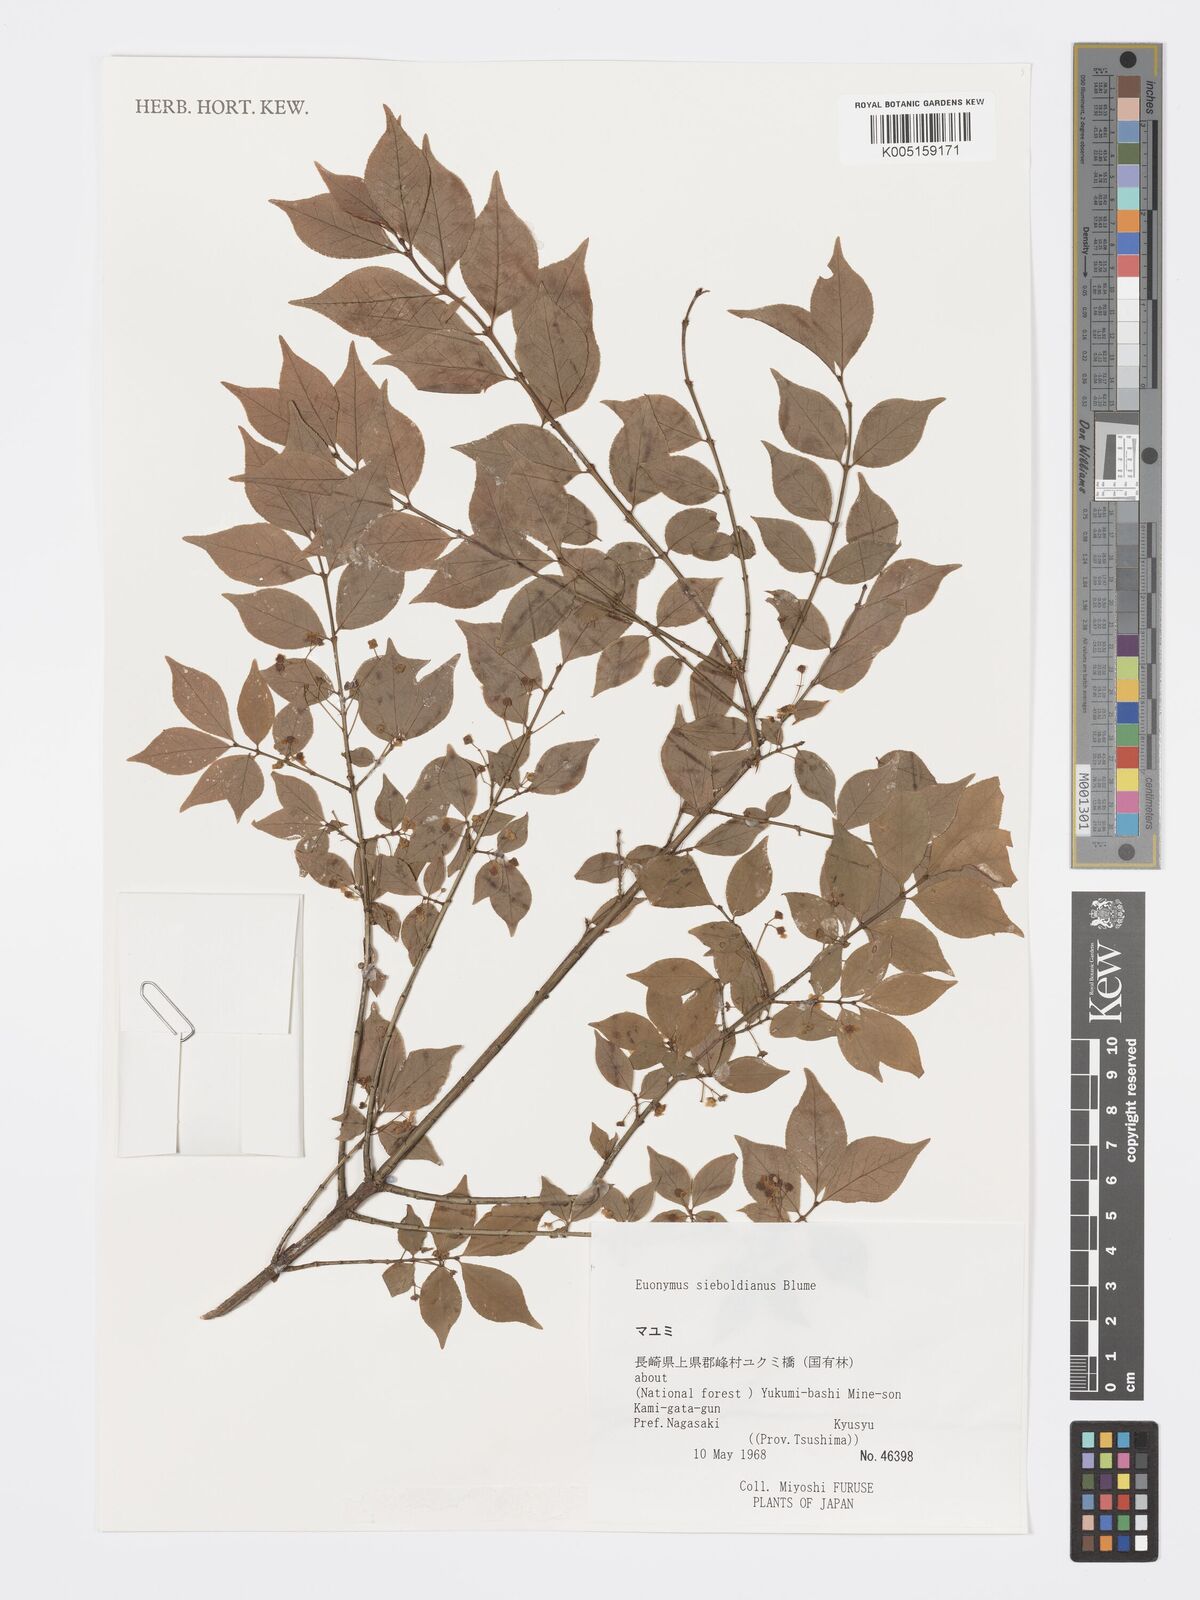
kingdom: Plantae
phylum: Tracheophyta
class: Magnoliopsida
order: Celastrales
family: Celastraceae
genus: Euonymus
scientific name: Euonymus hamiltonianus
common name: Hamilton's spindletree
